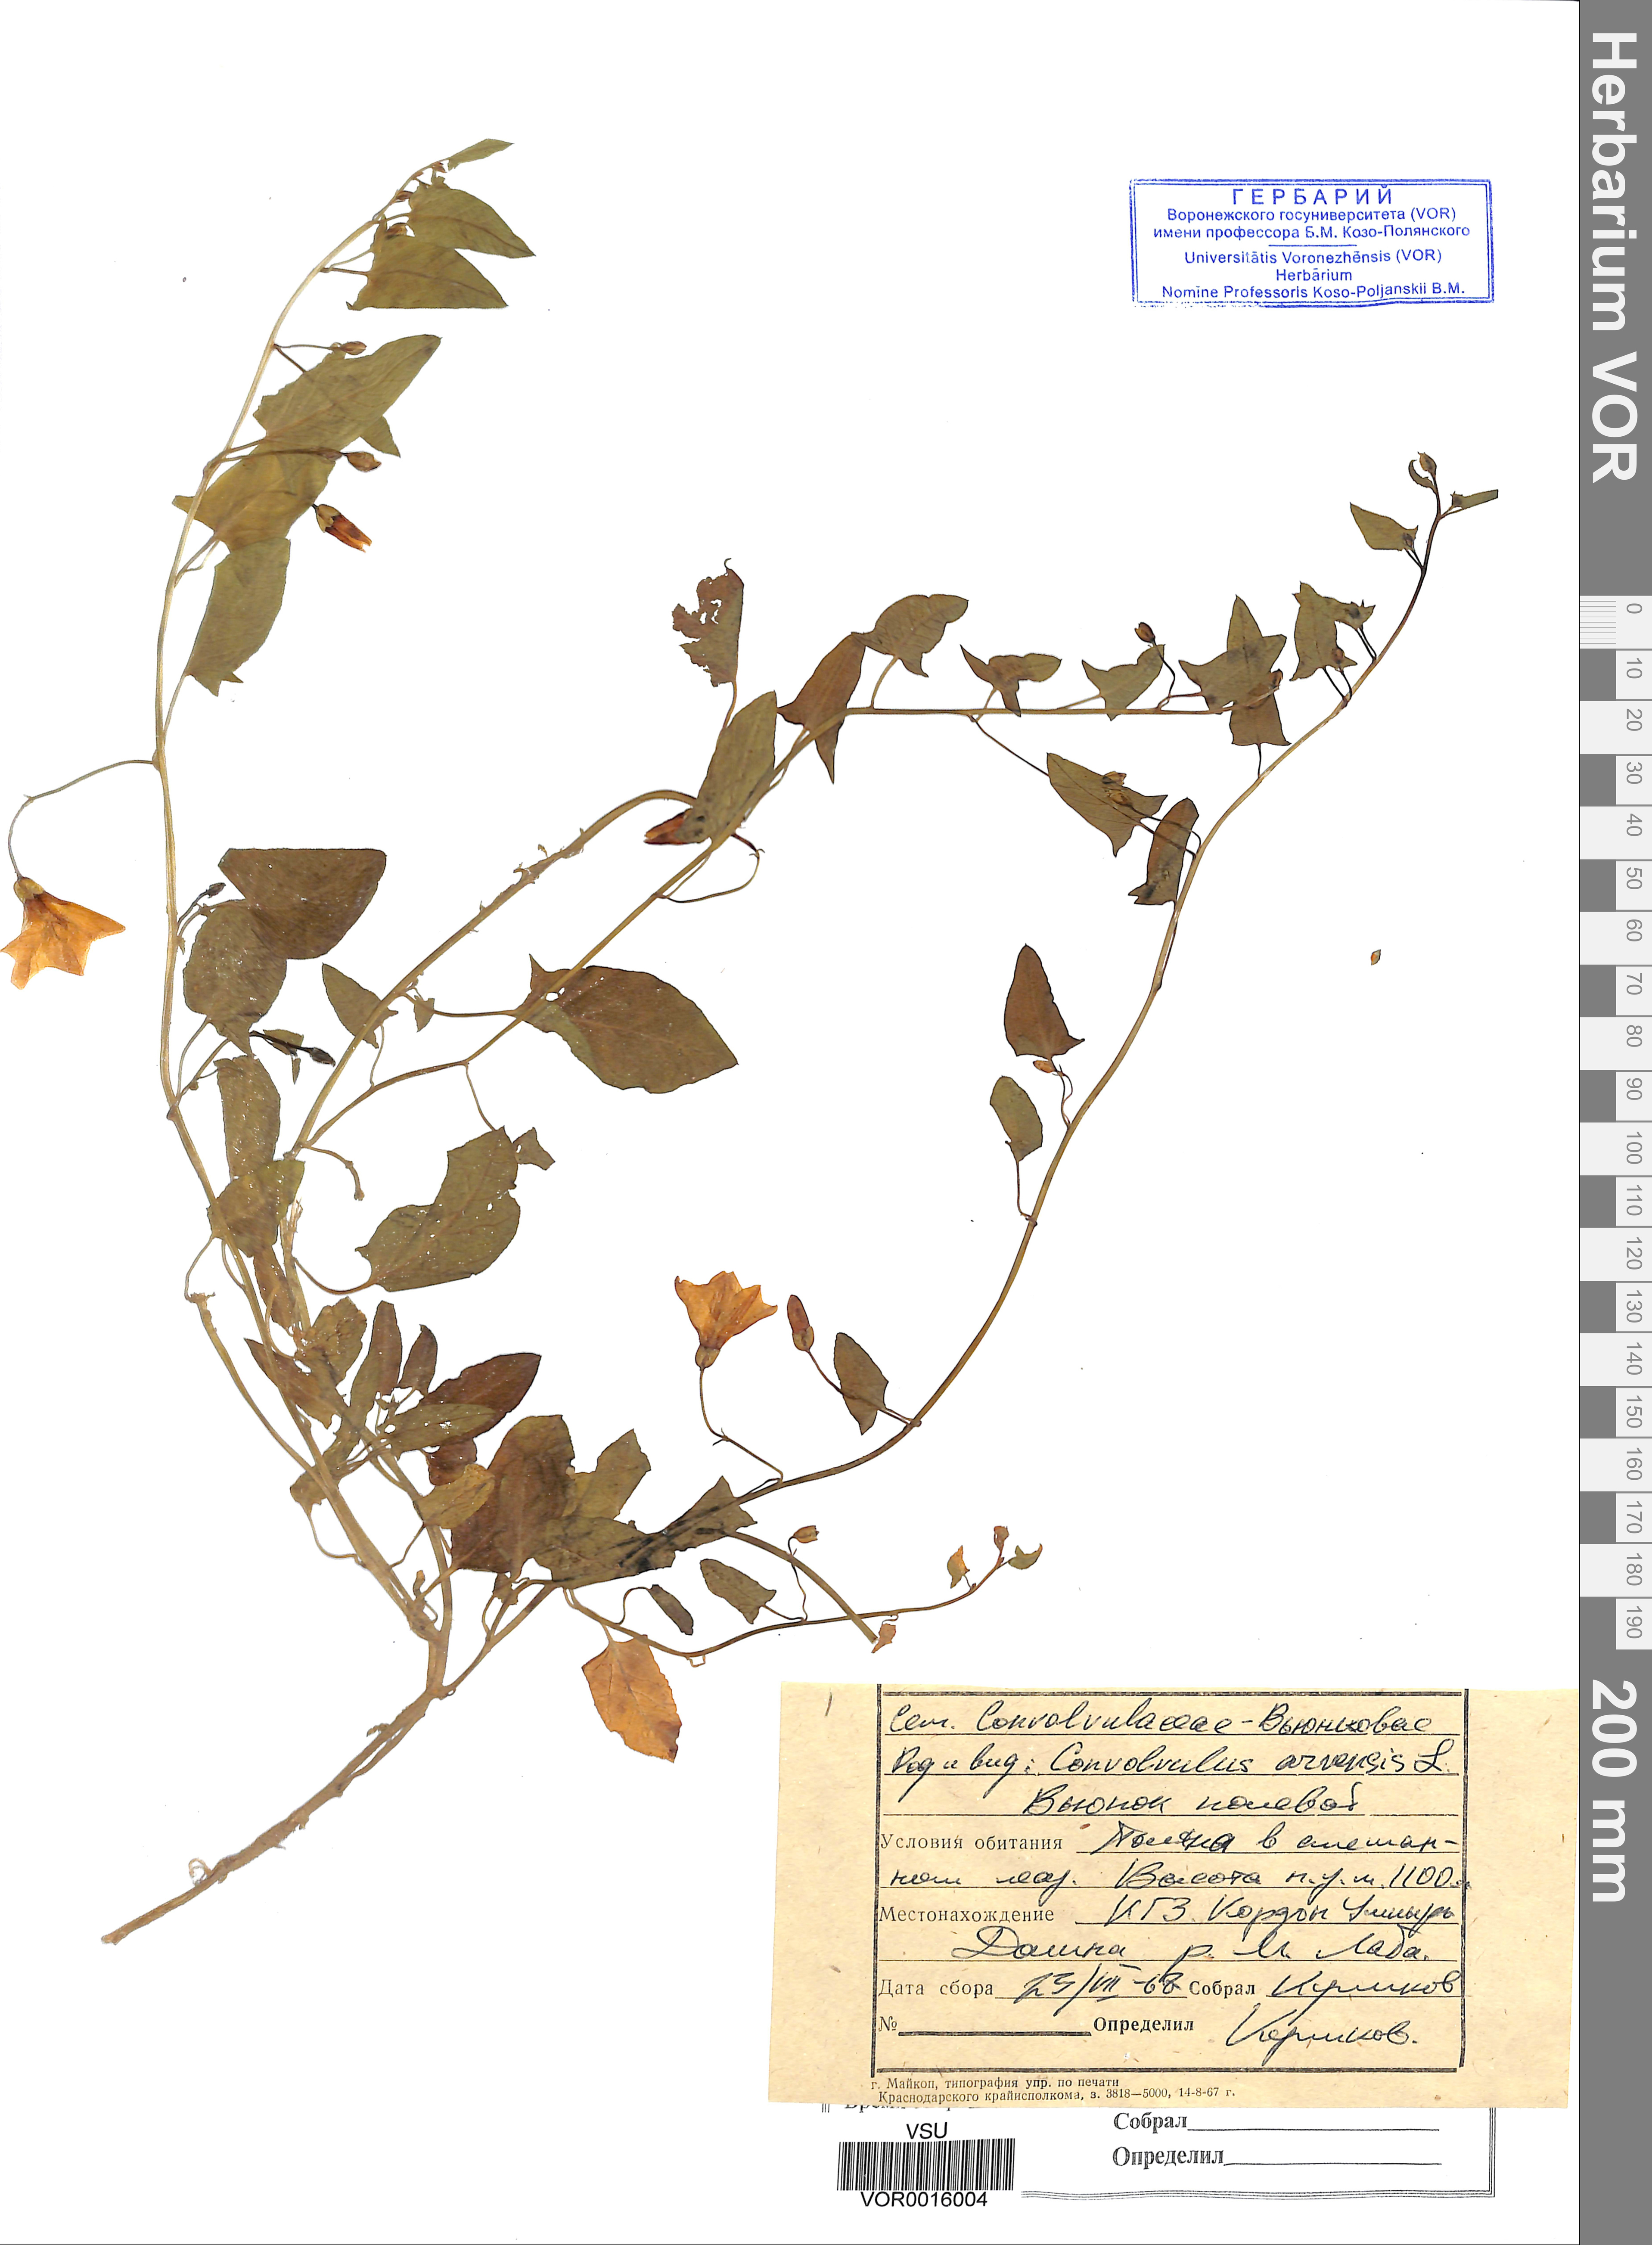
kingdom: Plantae
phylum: Tracheophyta
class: Magnoliopsida
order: Solanales
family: Convolvulaceae
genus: Convolvulus
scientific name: Convolvulus arvensis
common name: Field bindweed
